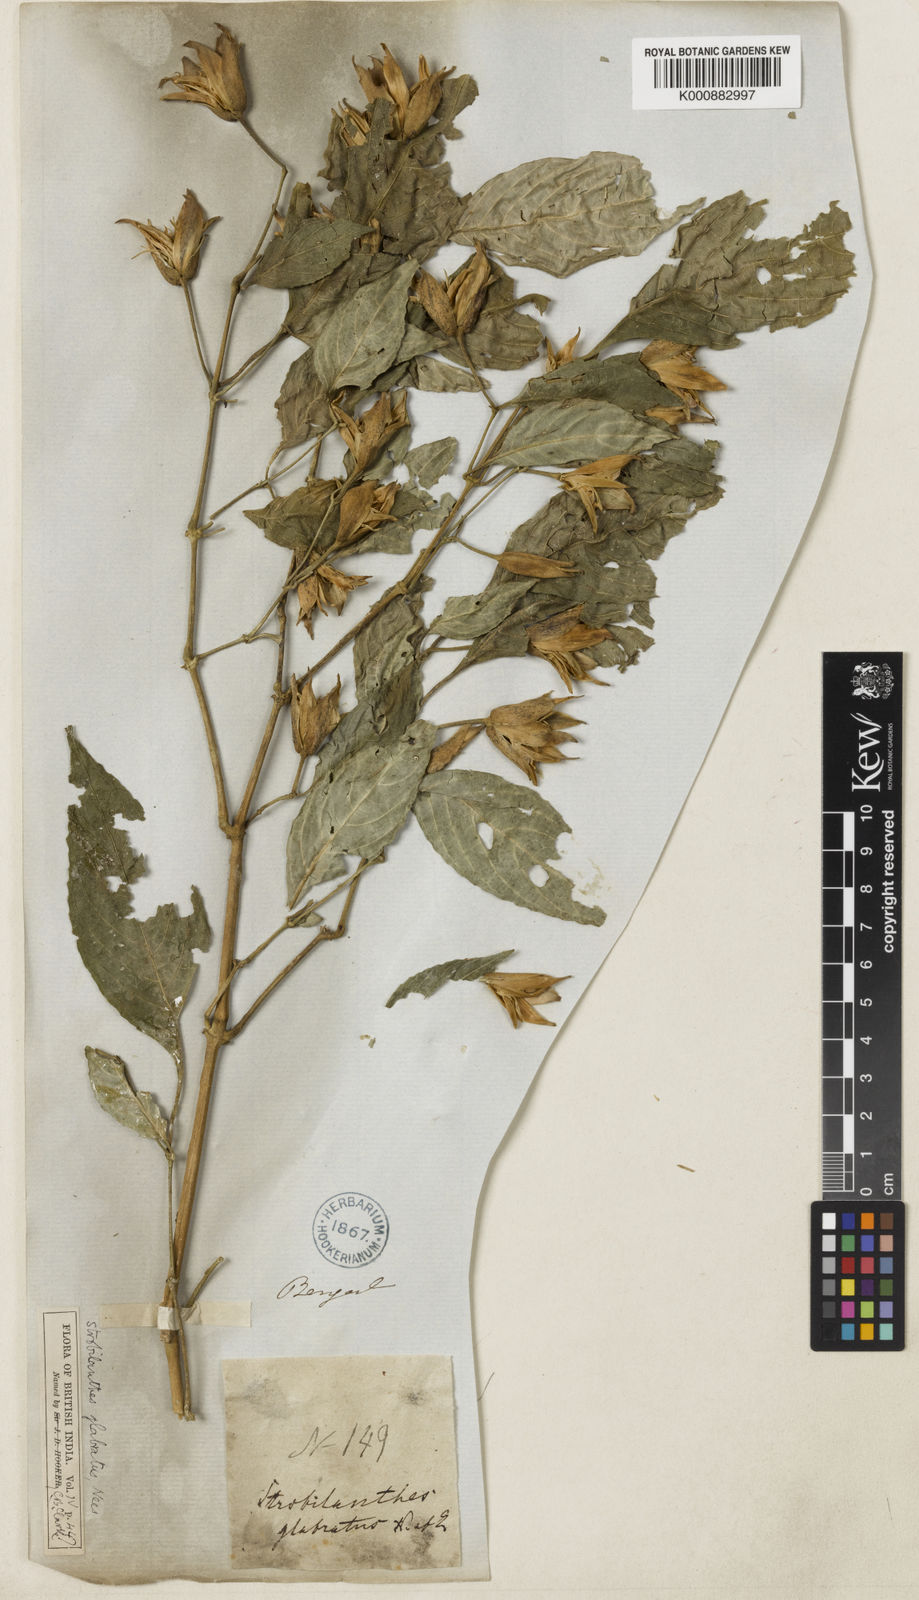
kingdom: Plantae
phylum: Tracheophyta
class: Magnoliopsida
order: Lamiales
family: Acanthaceae
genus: Strobilanthes
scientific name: Strobilanthes glabrata
